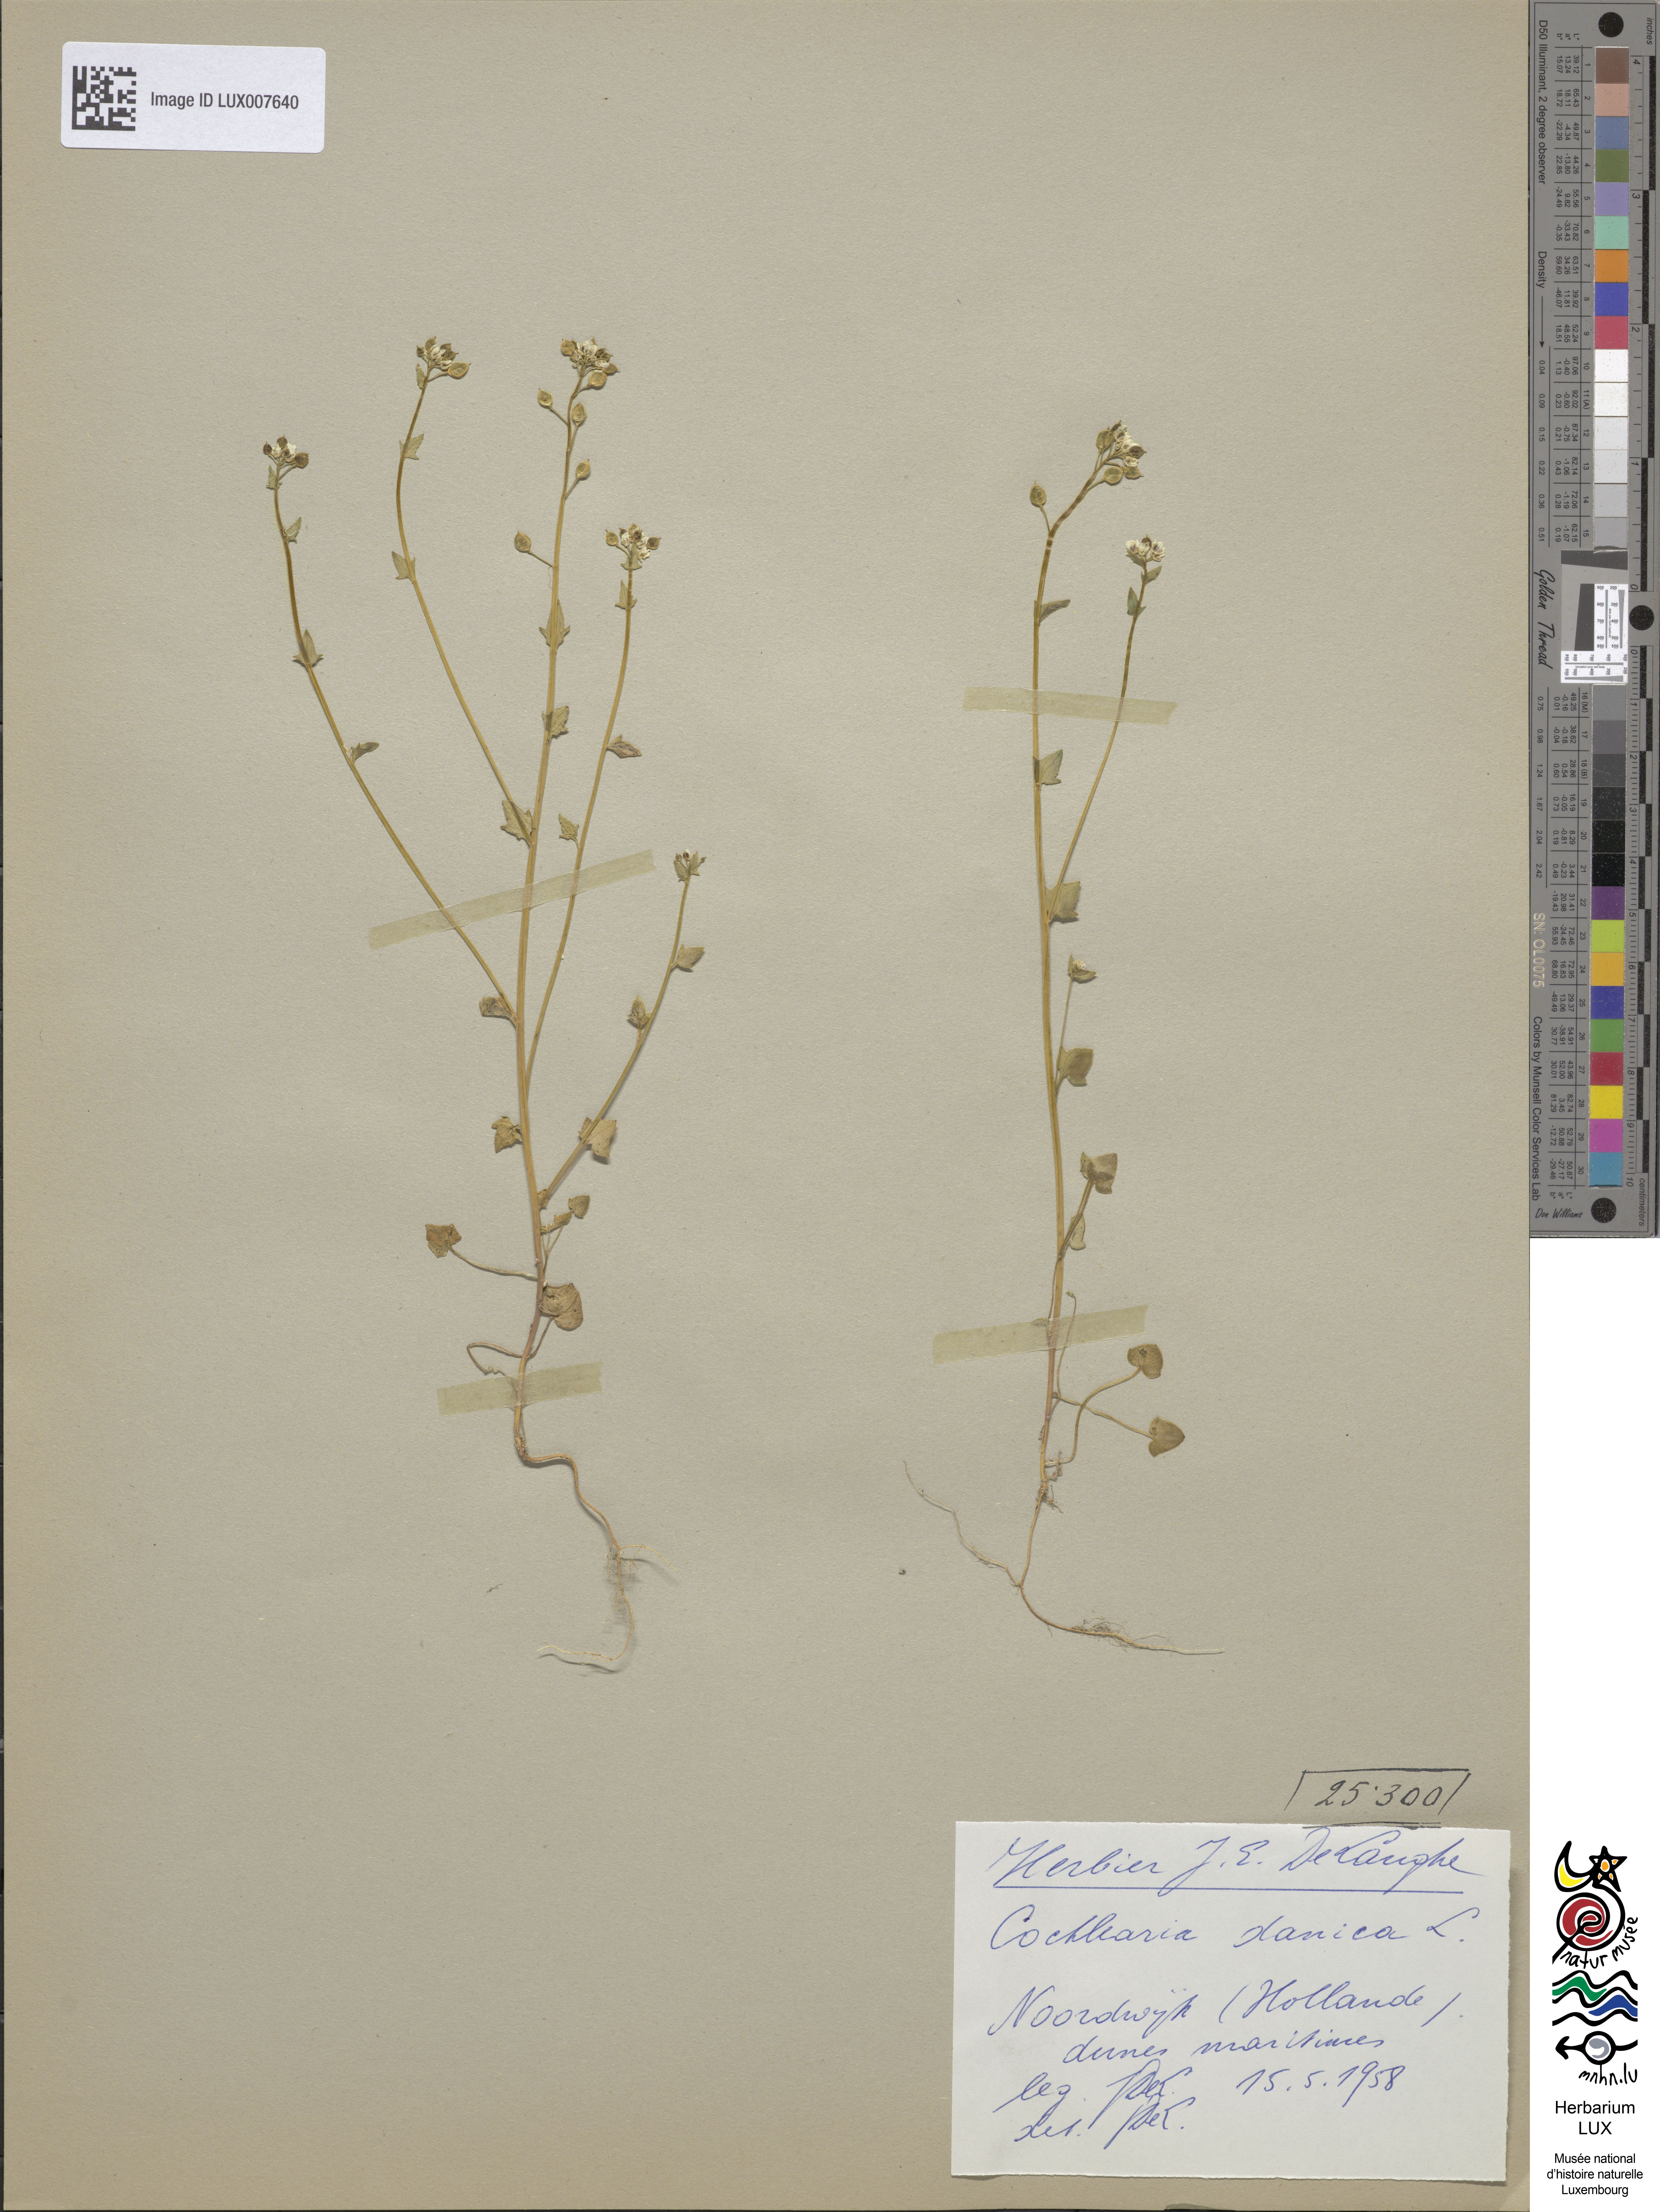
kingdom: Plantae
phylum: Tracheophyta
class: Magnoliopsida
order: Brassicales
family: Brassicaceae
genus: Cochlearia
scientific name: Cochlearia danica
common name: Early scurvygrass
